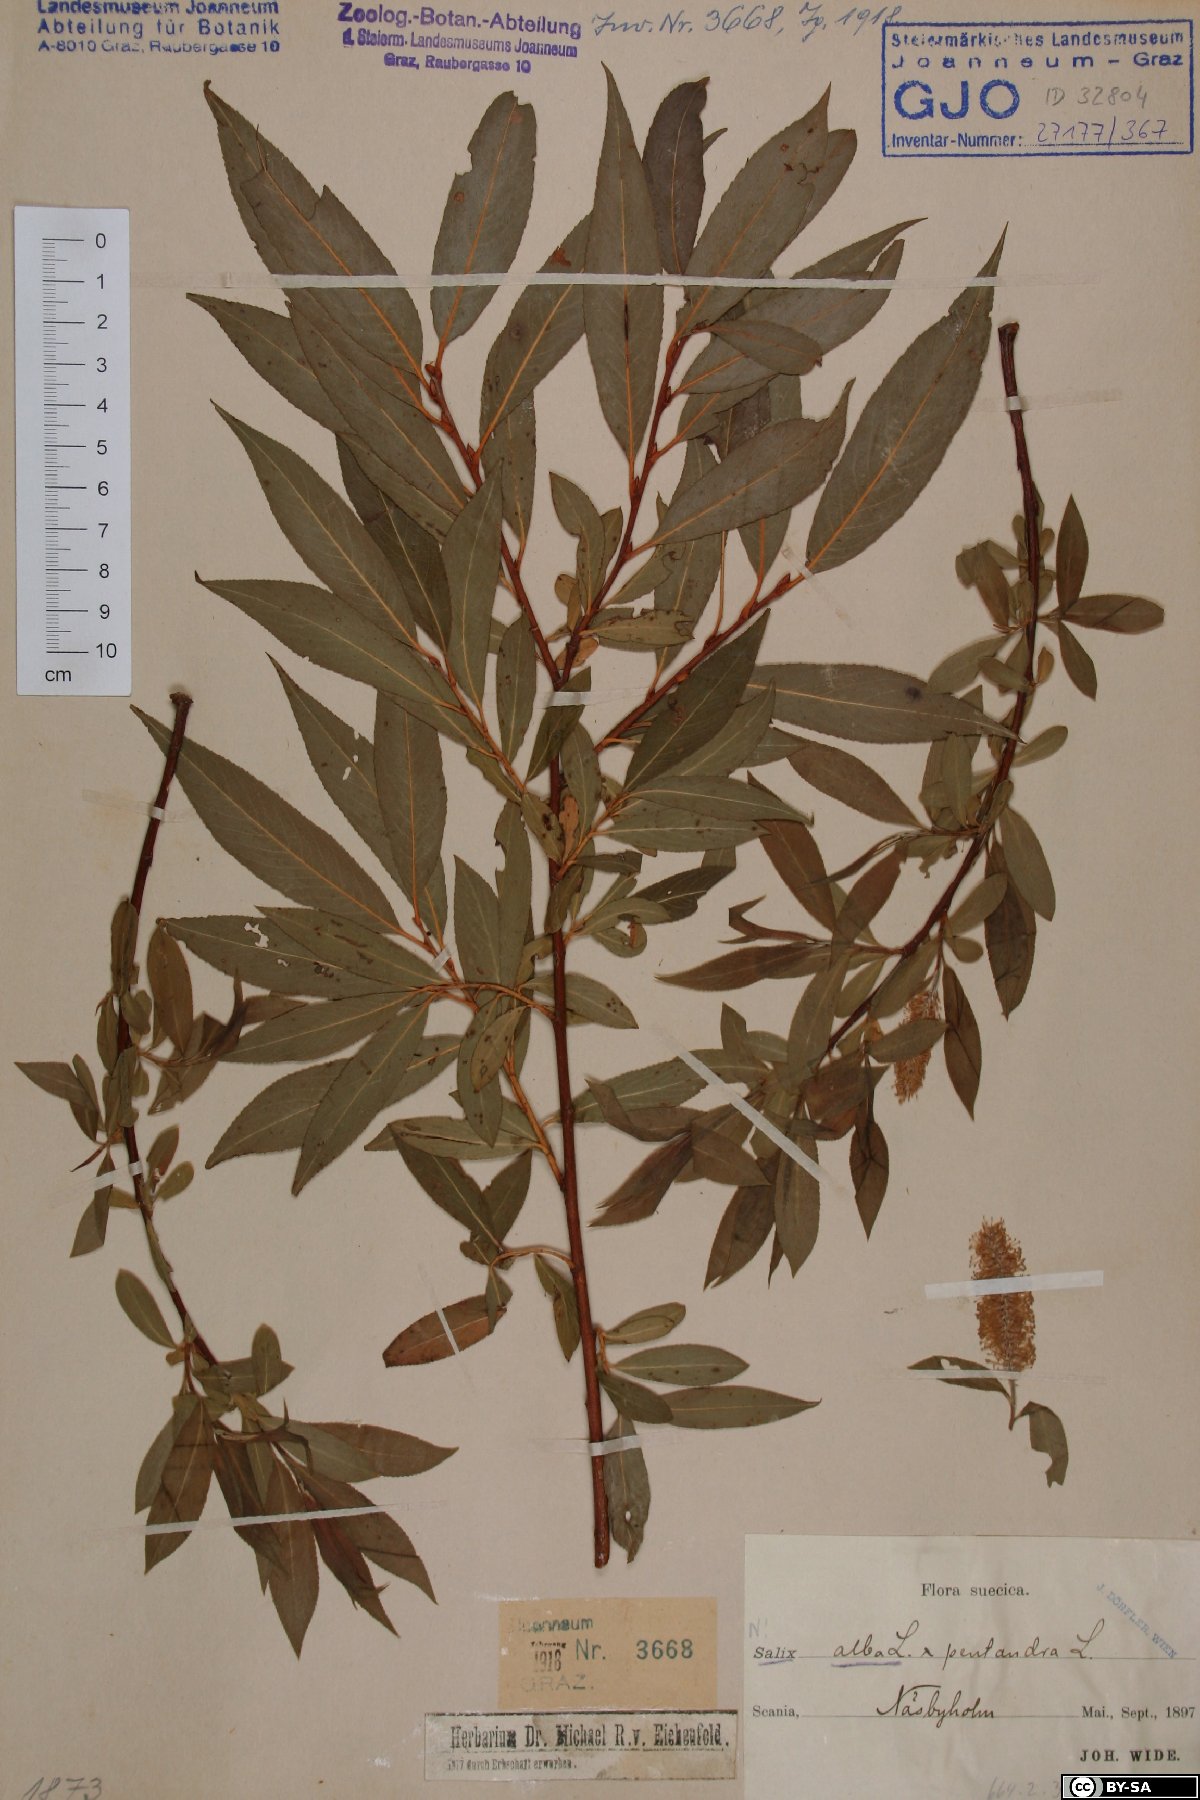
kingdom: Plantae
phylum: Tracheophyta
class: Magnoliopsida
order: Malpighiales
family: Salicaceae
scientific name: Salicaceae
